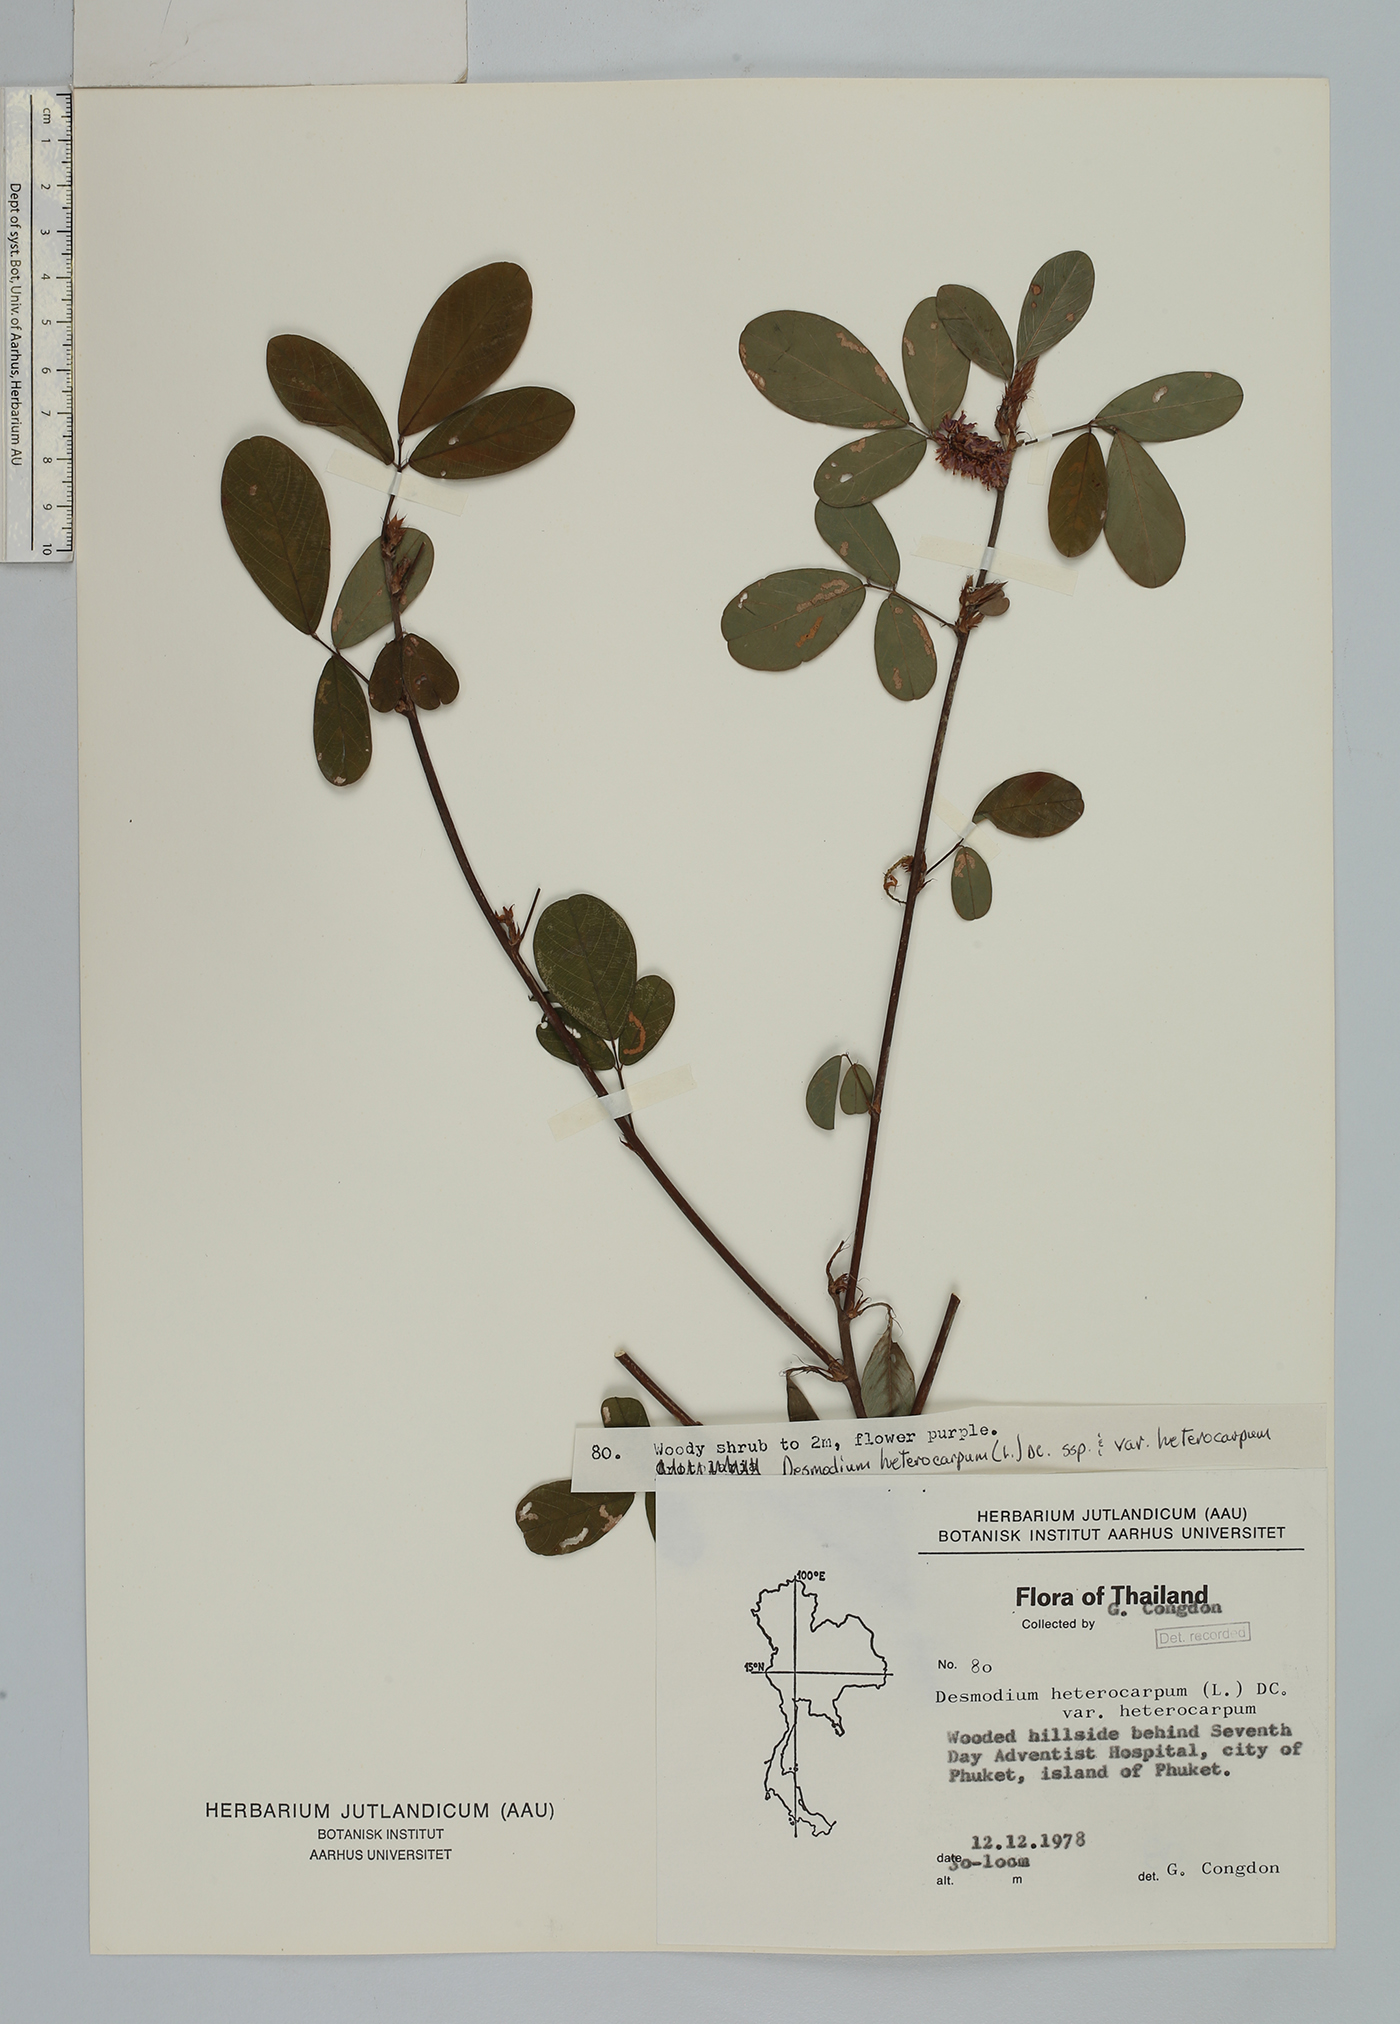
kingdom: Plantae
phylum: Tracheophyta
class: Magnoliopsida
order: Fabales
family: Fabaceae
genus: Grona
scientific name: Grona heterocarpos
